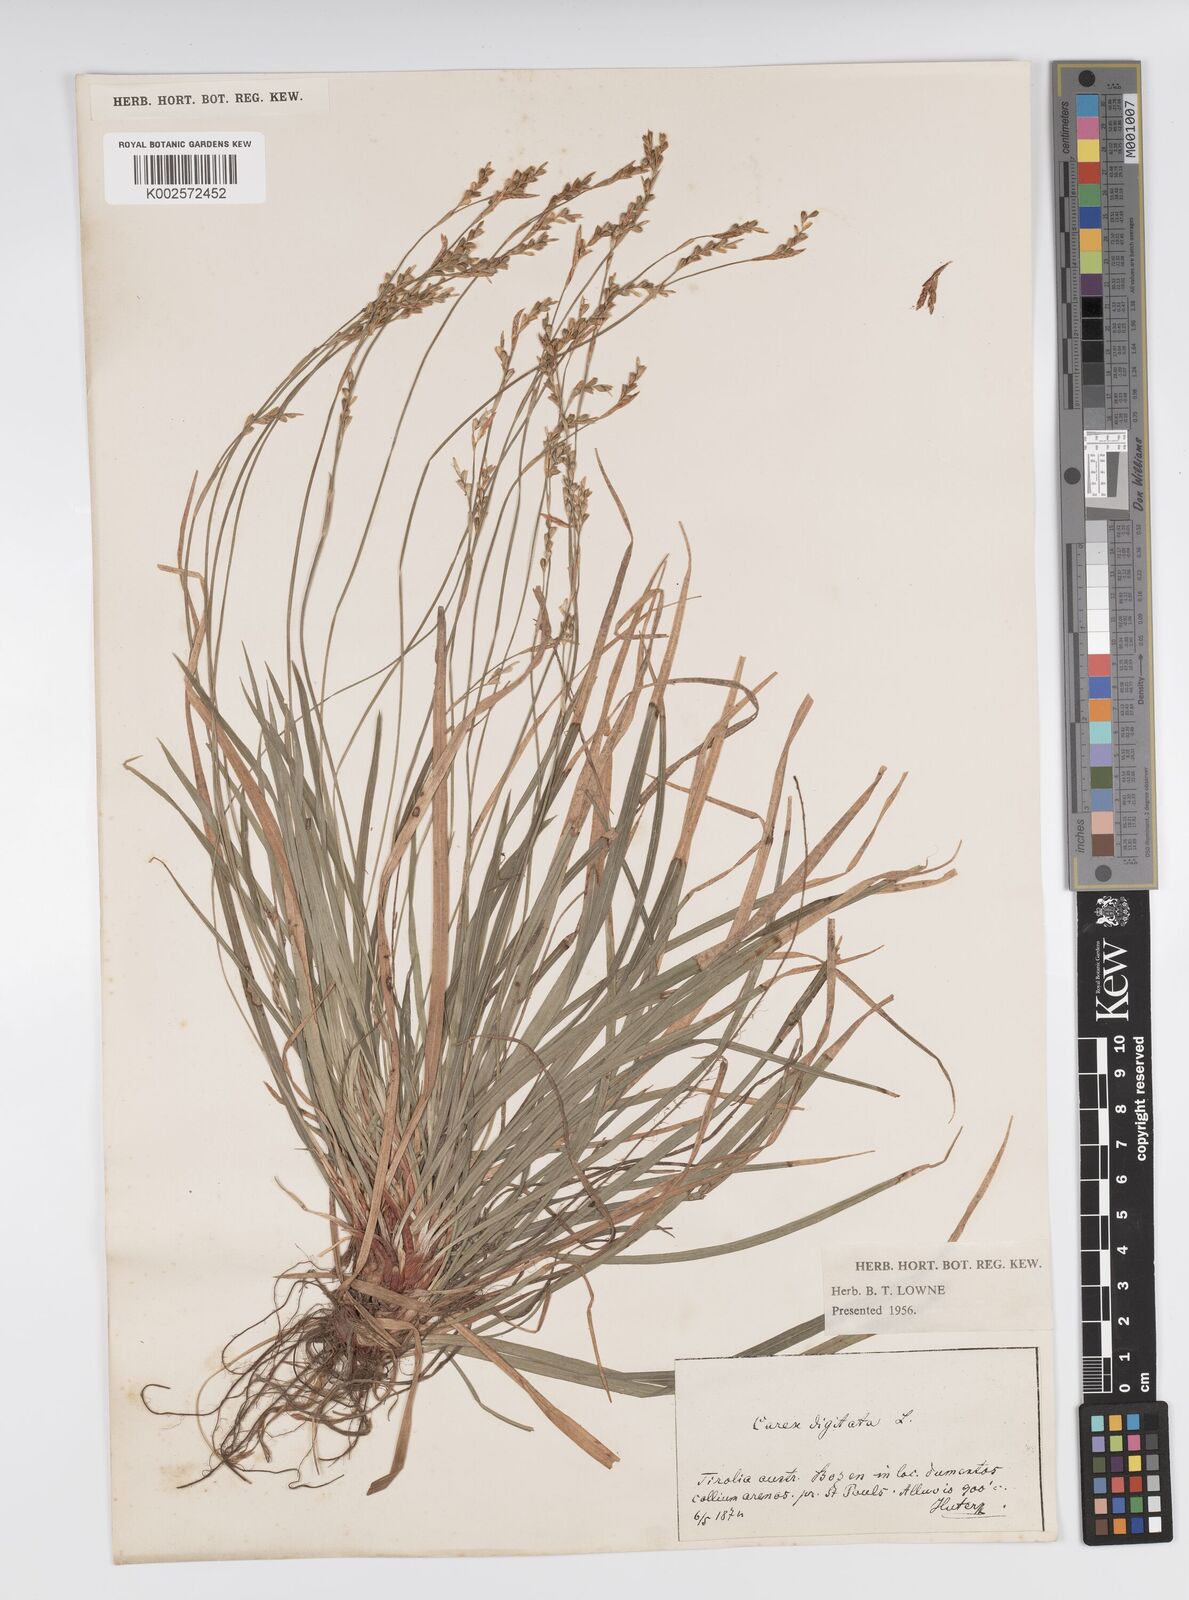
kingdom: Plantae
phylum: Tracheophyta
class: Liliopsida
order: Poales
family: Cyperaceae
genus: Carex
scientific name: Carex digitata
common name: Fingered sedge
